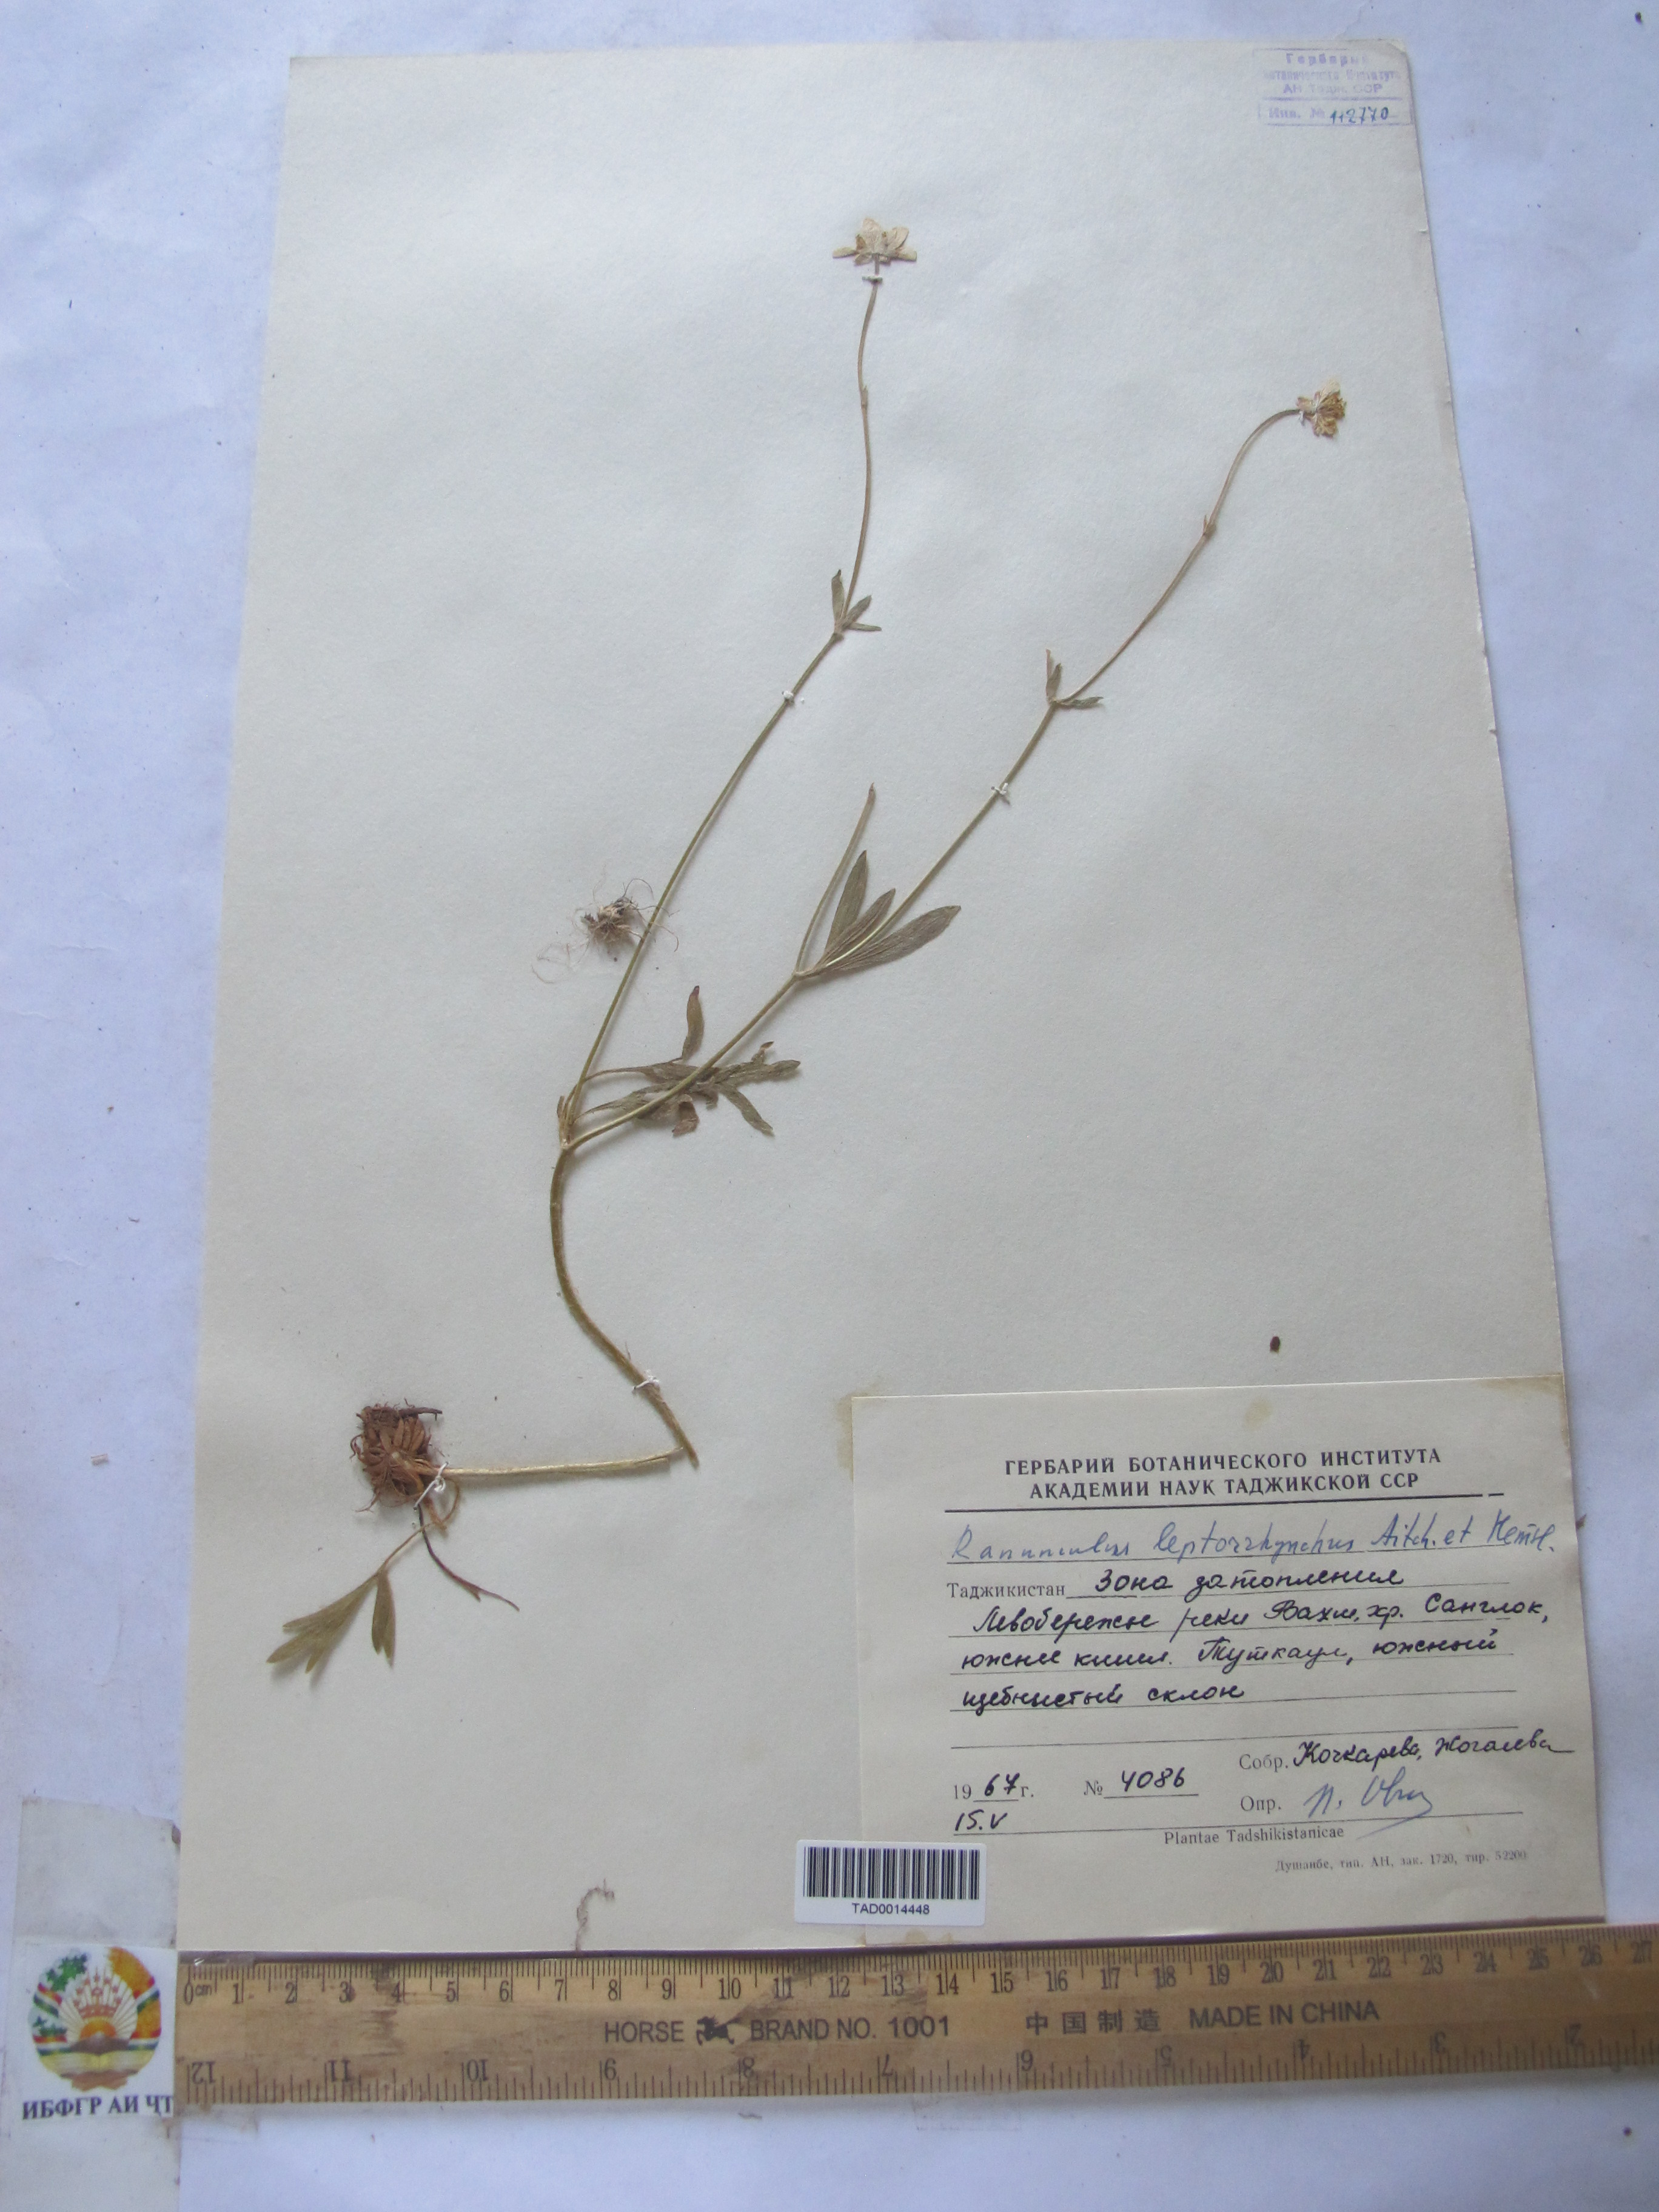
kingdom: Plantae
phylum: Tracheophyta
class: Magnoliopsida
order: Ranunculales
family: Ranunculaceae
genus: Ranunculus
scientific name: Ranunculus leptorrhynchus
